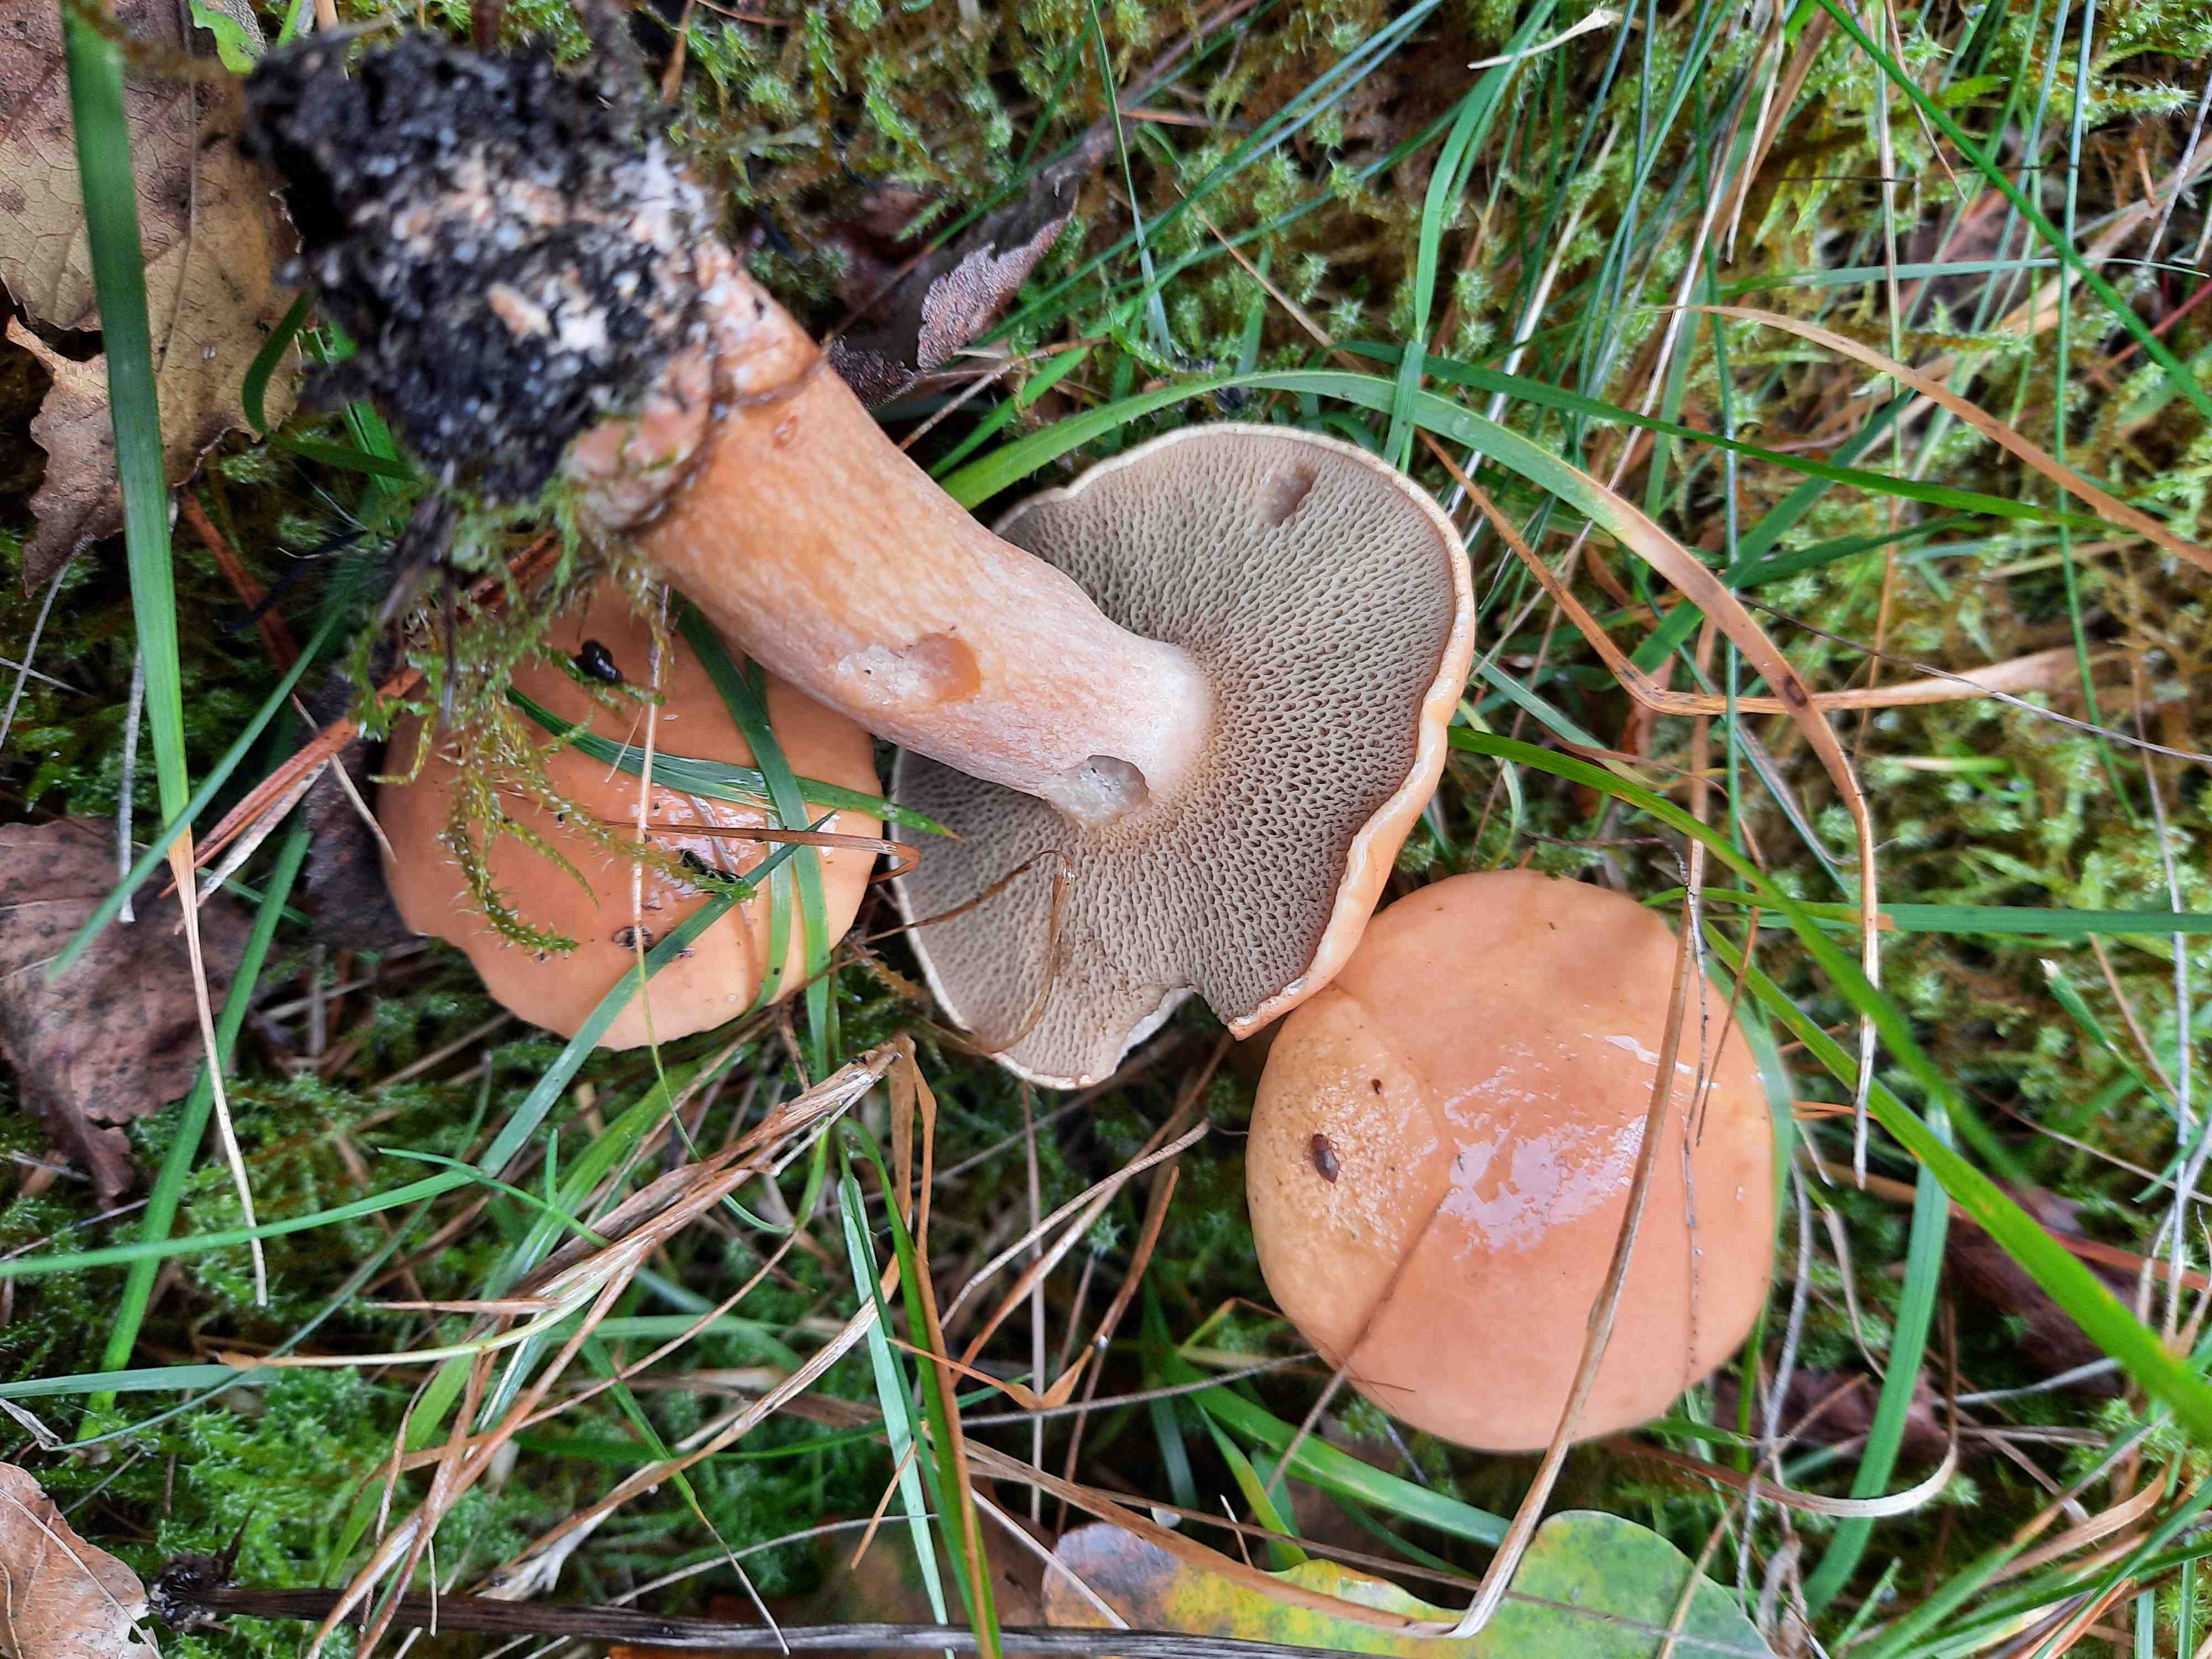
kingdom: Fungi
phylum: Basidiomycota
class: Agaricomycetes
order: Boletales
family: Suillaceae
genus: Suillus
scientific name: Suillus bovinus
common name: grovporet slimrørhat
